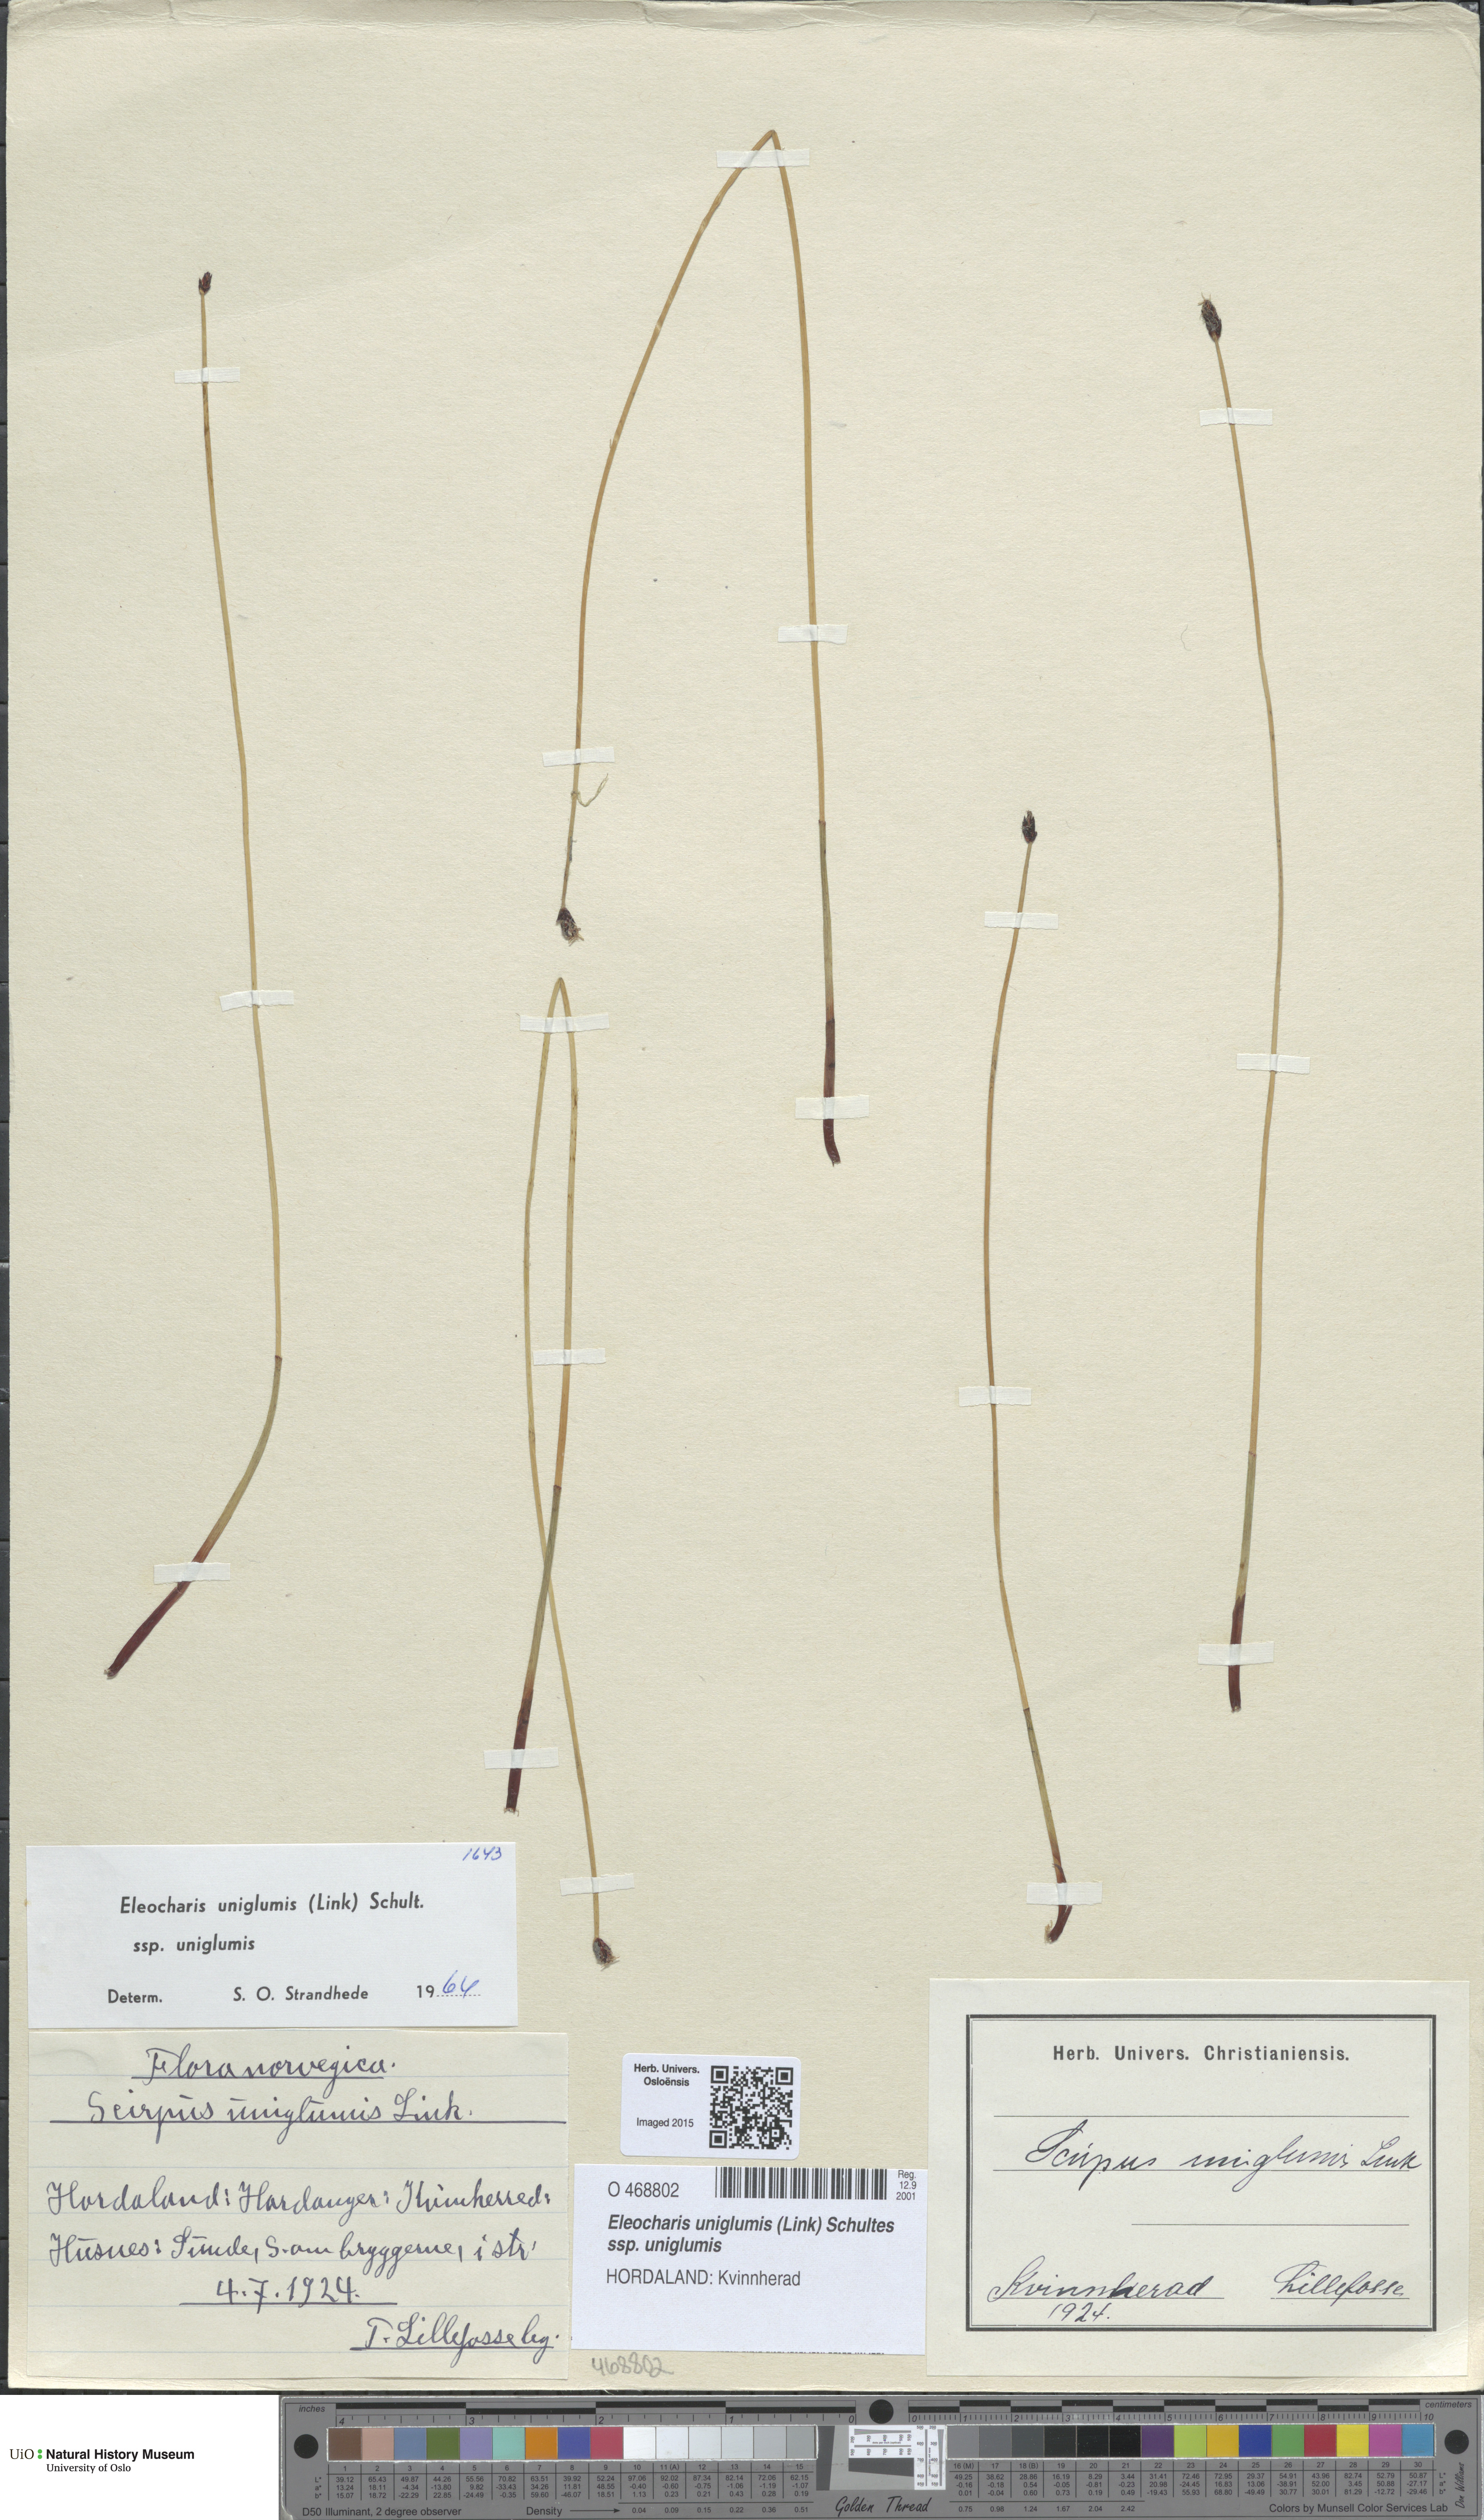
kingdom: Plantae
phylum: Tracheophyta
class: Liliopsida
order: Poales
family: Cyperaceae
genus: Eleocharis
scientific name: Eleocharis uniglumis
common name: Slender spike-rush
